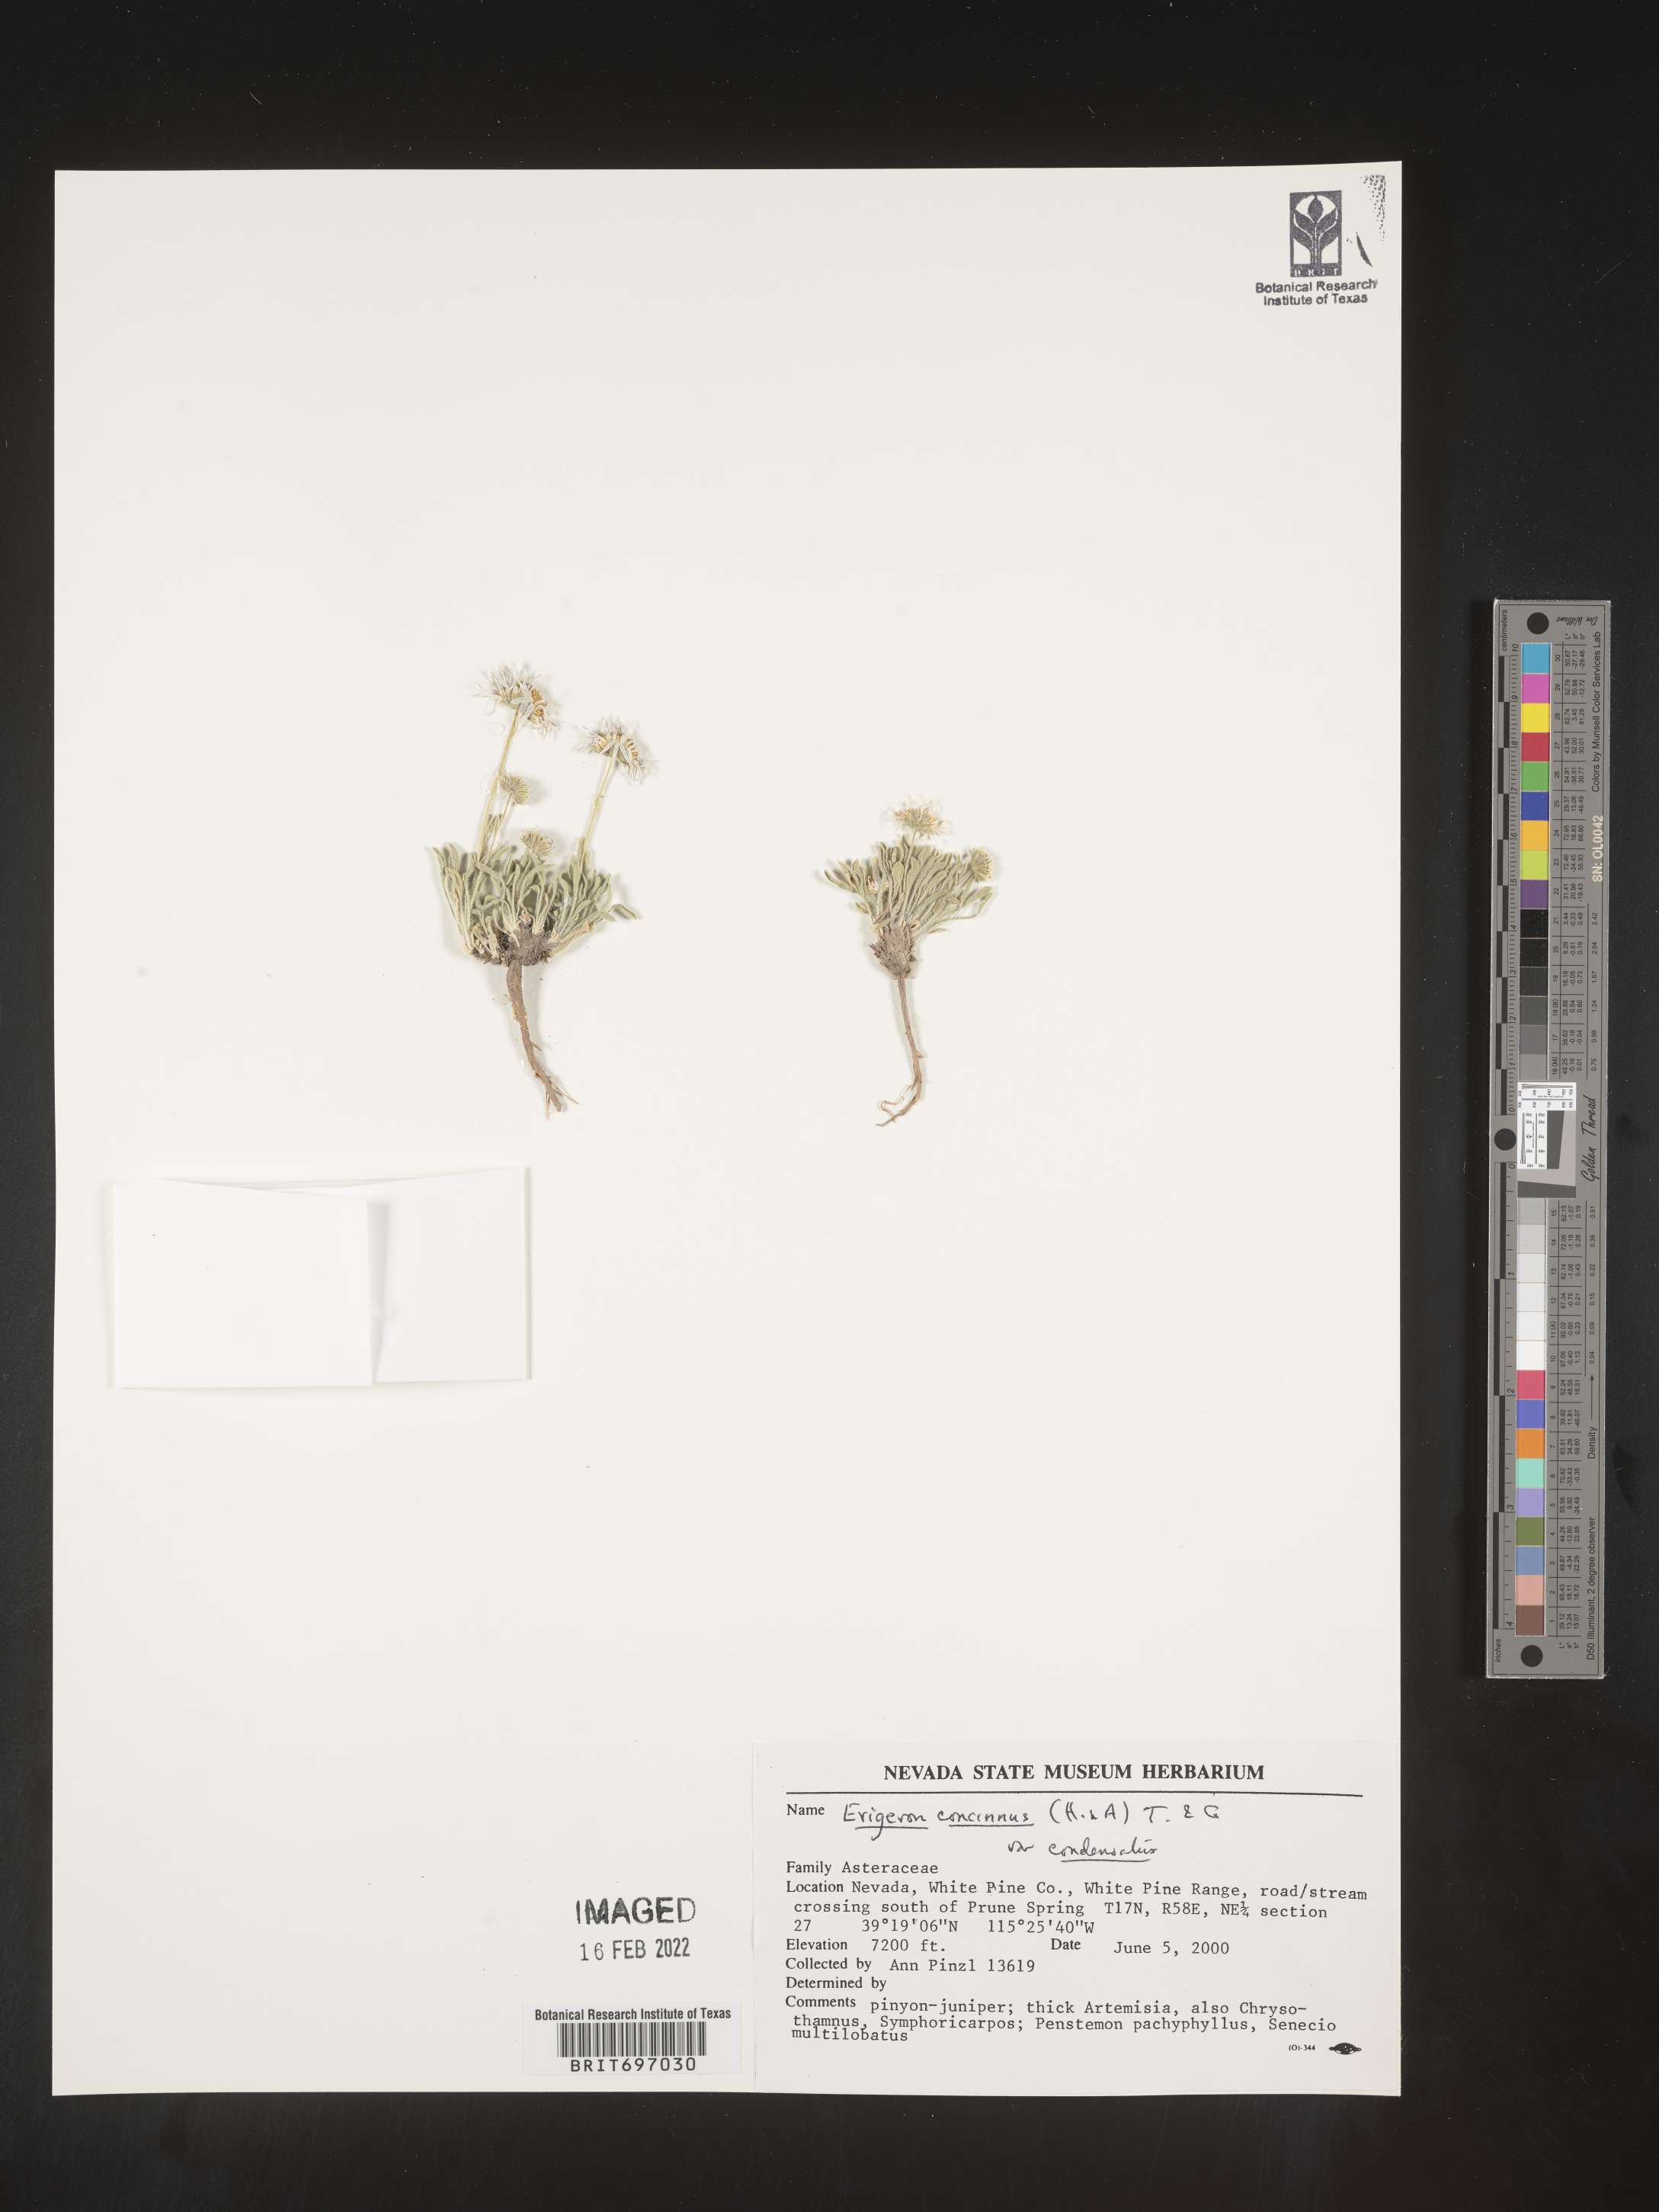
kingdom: Plantae
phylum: Tracheophyta
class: Magnoliopsida
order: Asterales
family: Asteraceae
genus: Erigeron
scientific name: Erigeron concinnus
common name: Navajo fleabane
